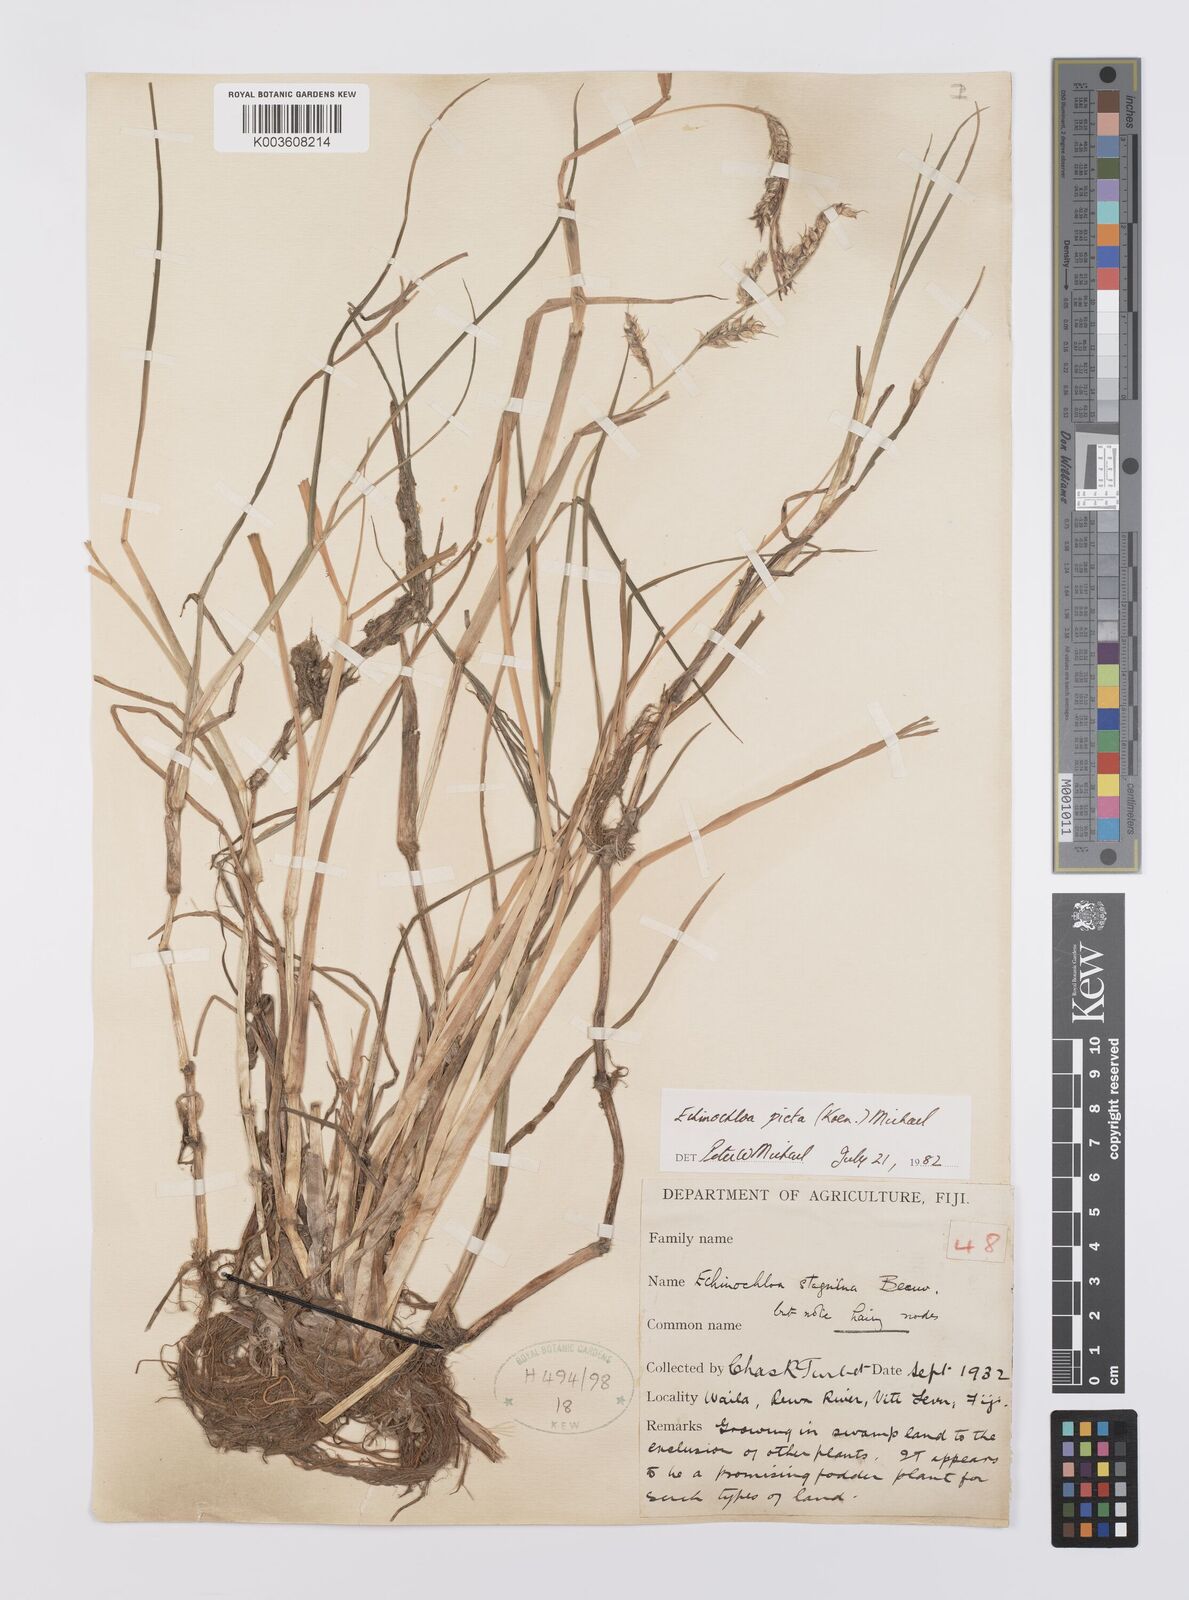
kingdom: Plantae
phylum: Tracheophyta
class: Liliopsida
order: Poales
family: Poaceae
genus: Echinochloa
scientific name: Echinochloa picta
